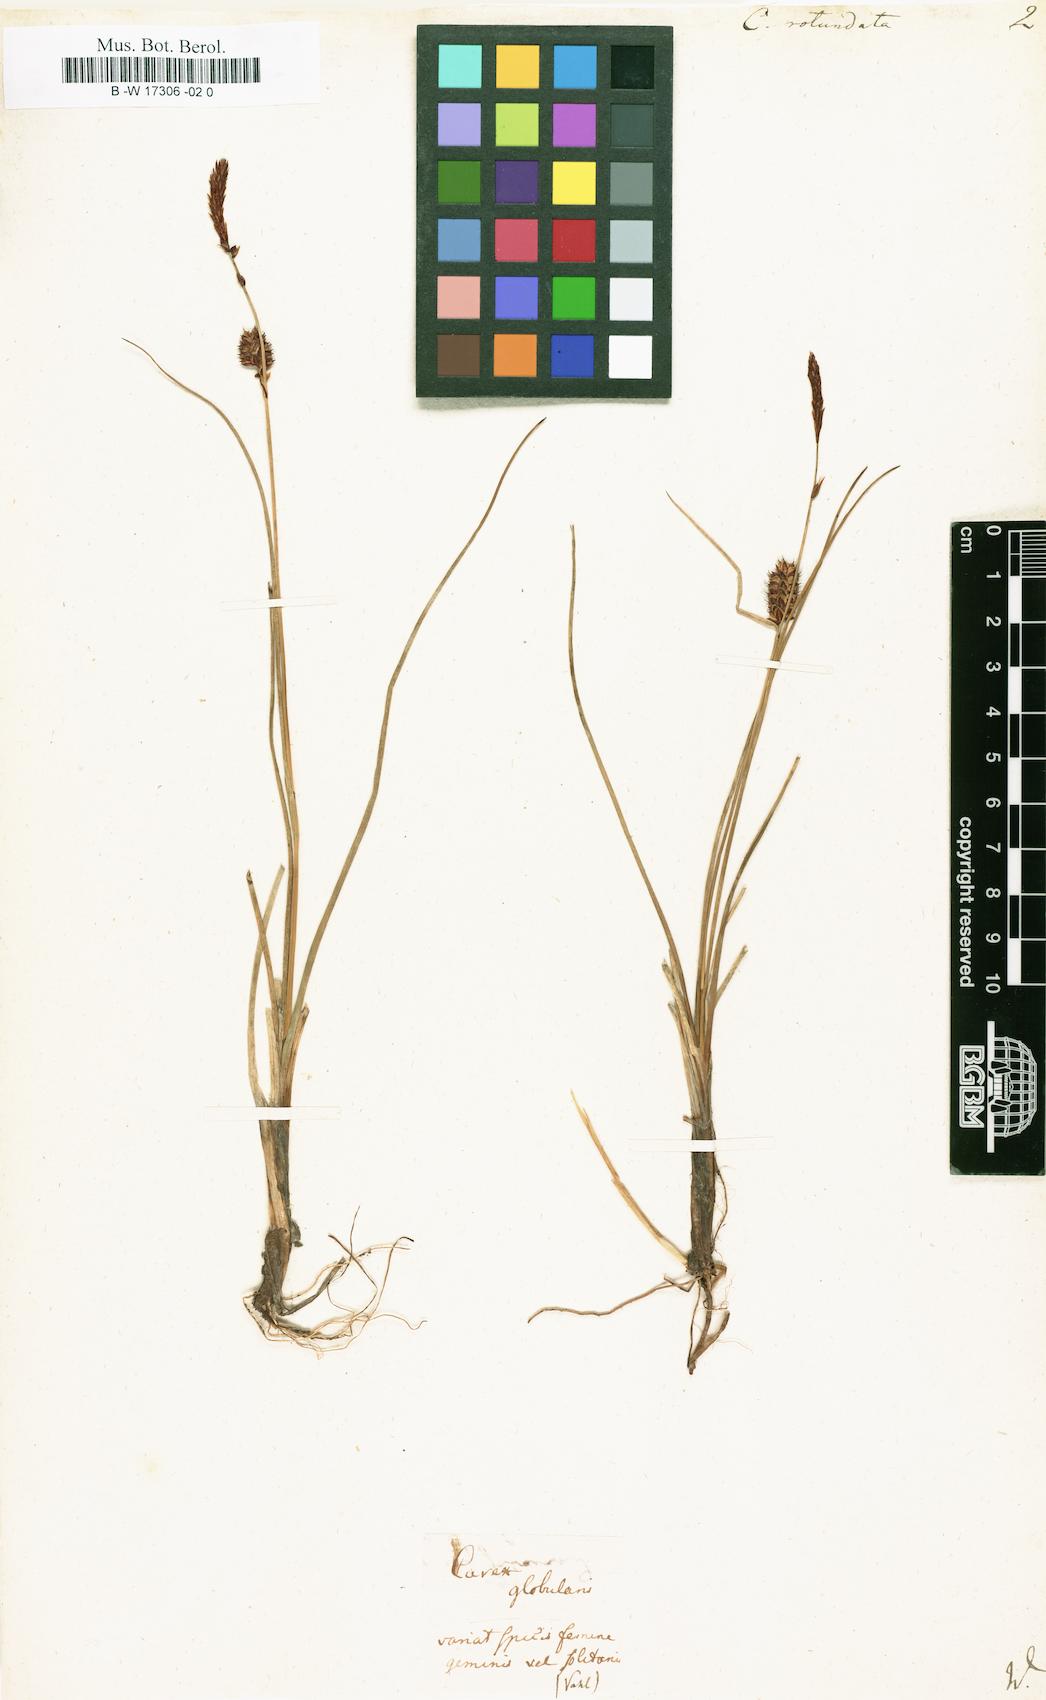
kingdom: Plantae
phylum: Tracheophyta
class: Liliopsida
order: Poales
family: Cyperaceae
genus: Carex
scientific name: Carex rotundata
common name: Round-fruited sedge
